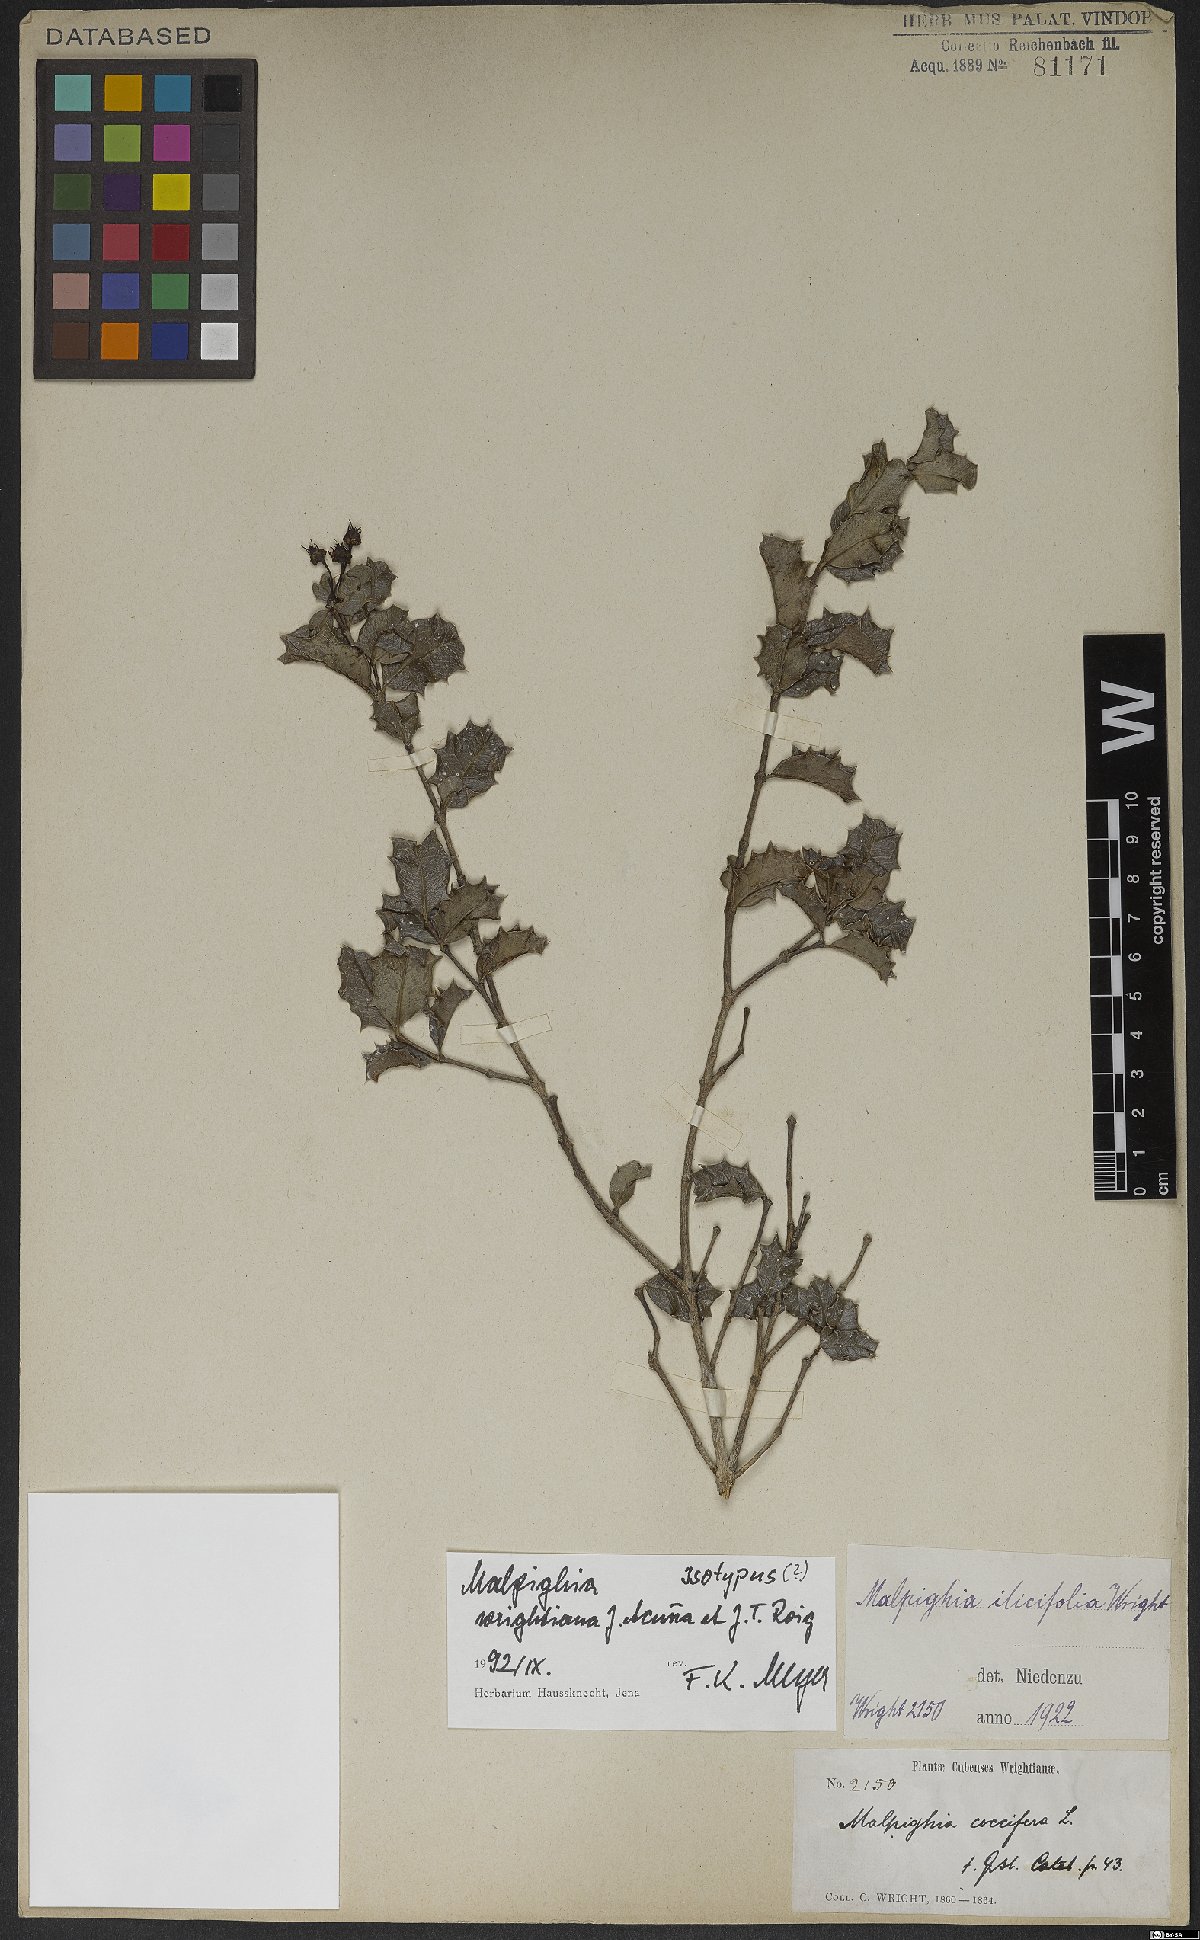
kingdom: Plantae
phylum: Tracheophyta
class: Magnoliopsida
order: Malpighiales
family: Malpighiaceae
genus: Malpighia
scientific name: Malpighia wrightiana
